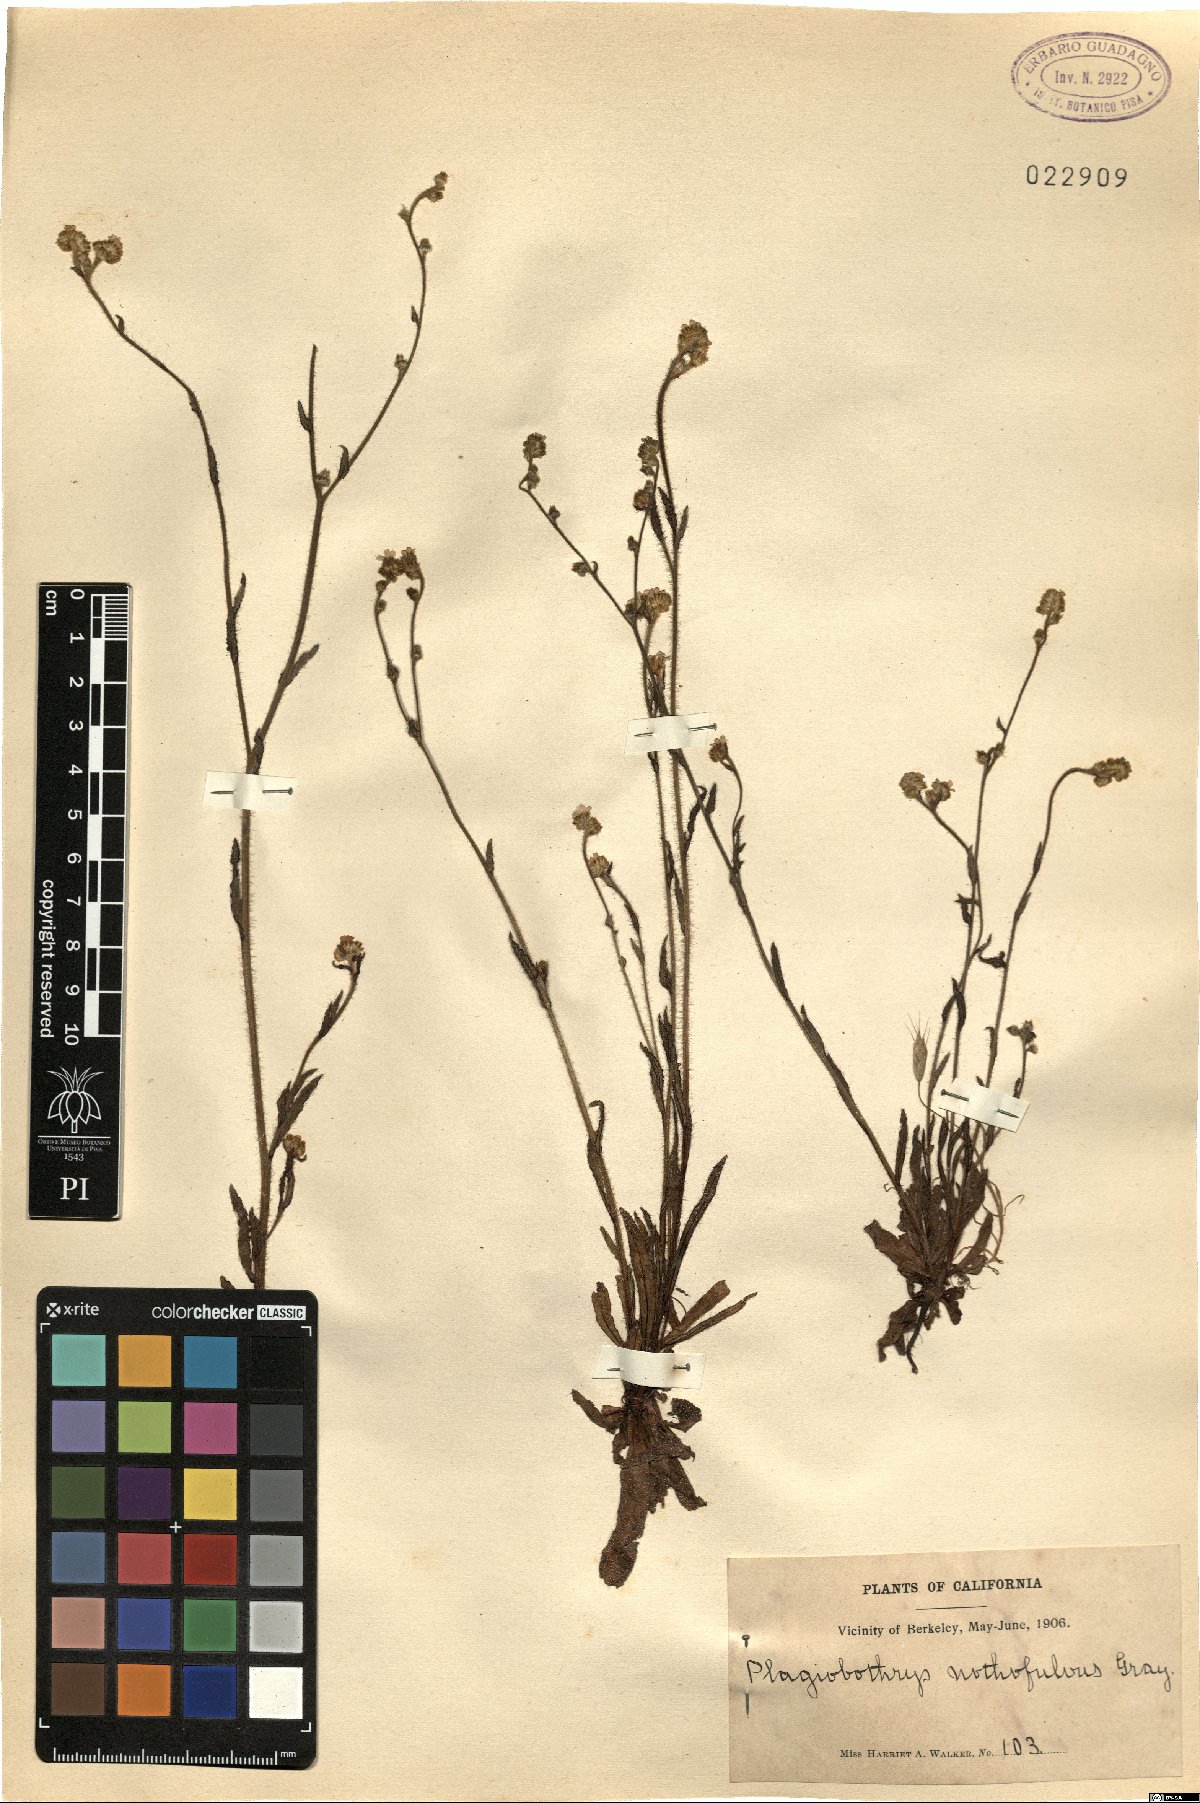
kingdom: Plantae
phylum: Tracheophyta
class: Magnoliopsida
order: Boraginales
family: Boraginaceae
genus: Plagiobothrys
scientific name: Plagiobothrys nothofulvus
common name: Popcorn-flower
